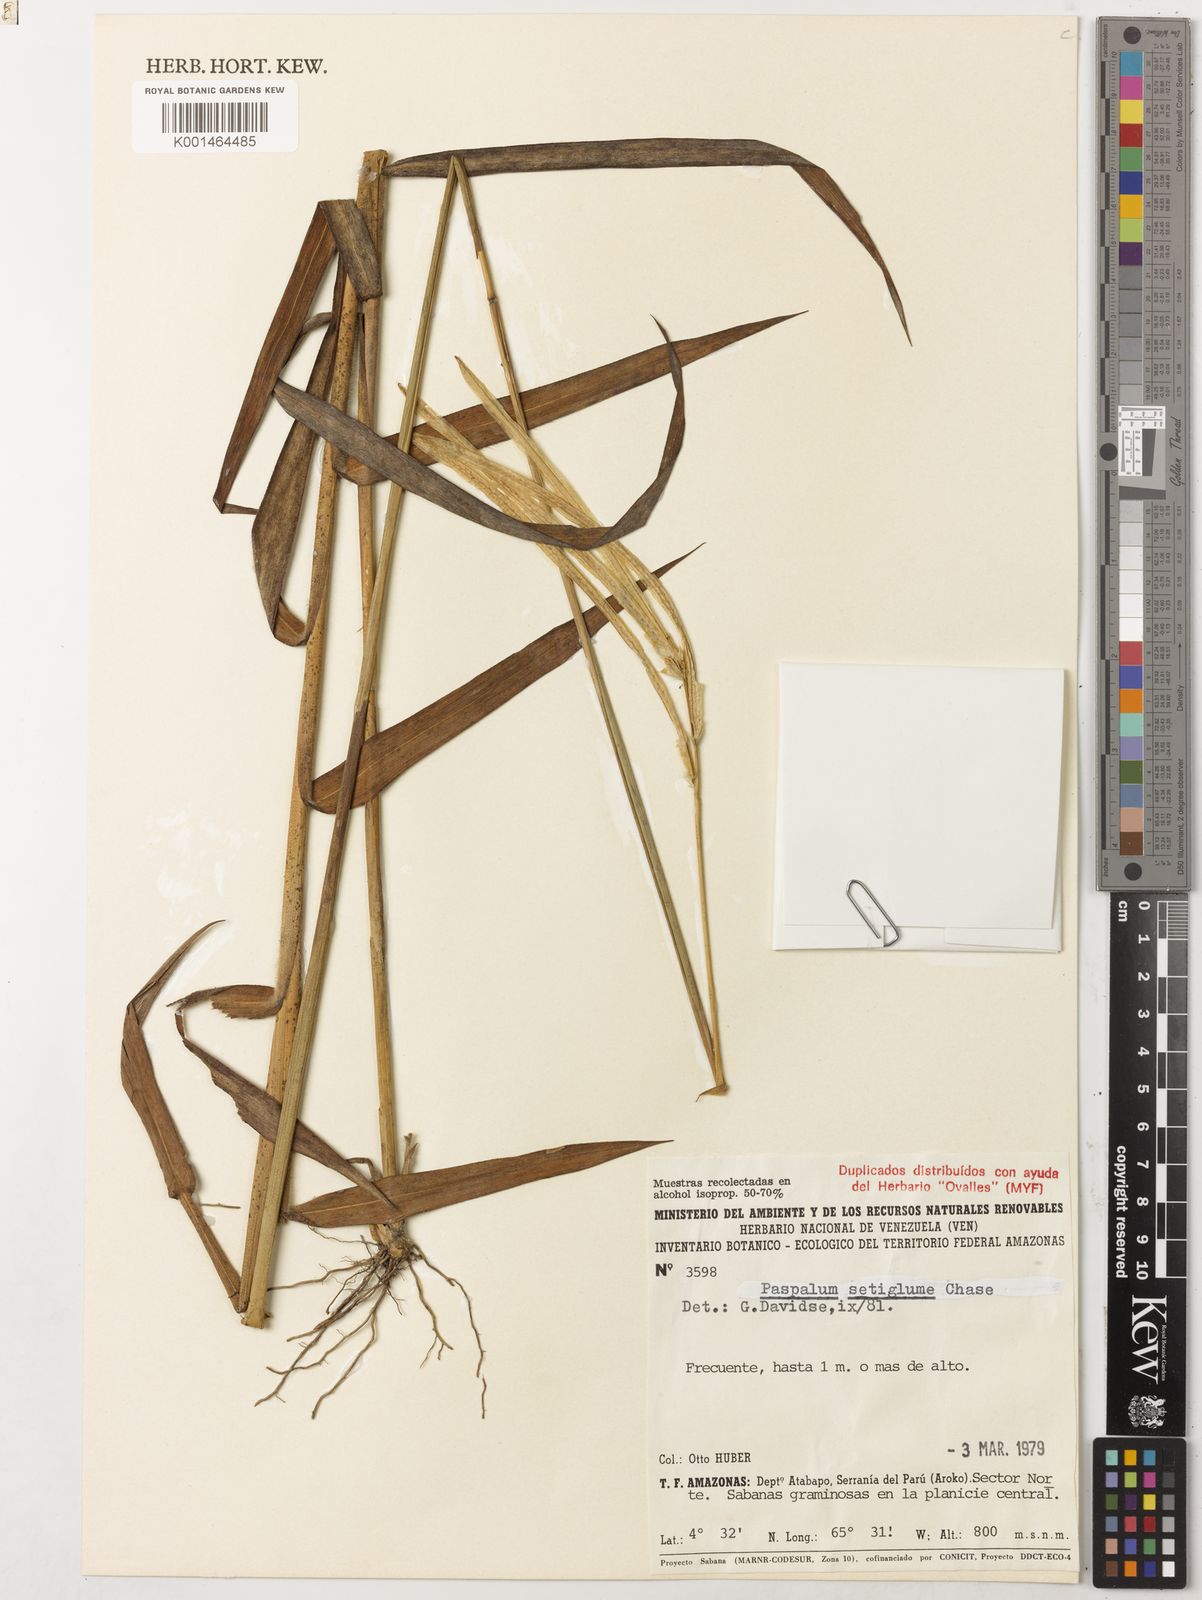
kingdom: Plantae
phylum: Tracheophyta
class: Liliopsida
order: Poales
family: Poaceae
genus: Paspalum
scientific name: Paspalum aspidiotes
